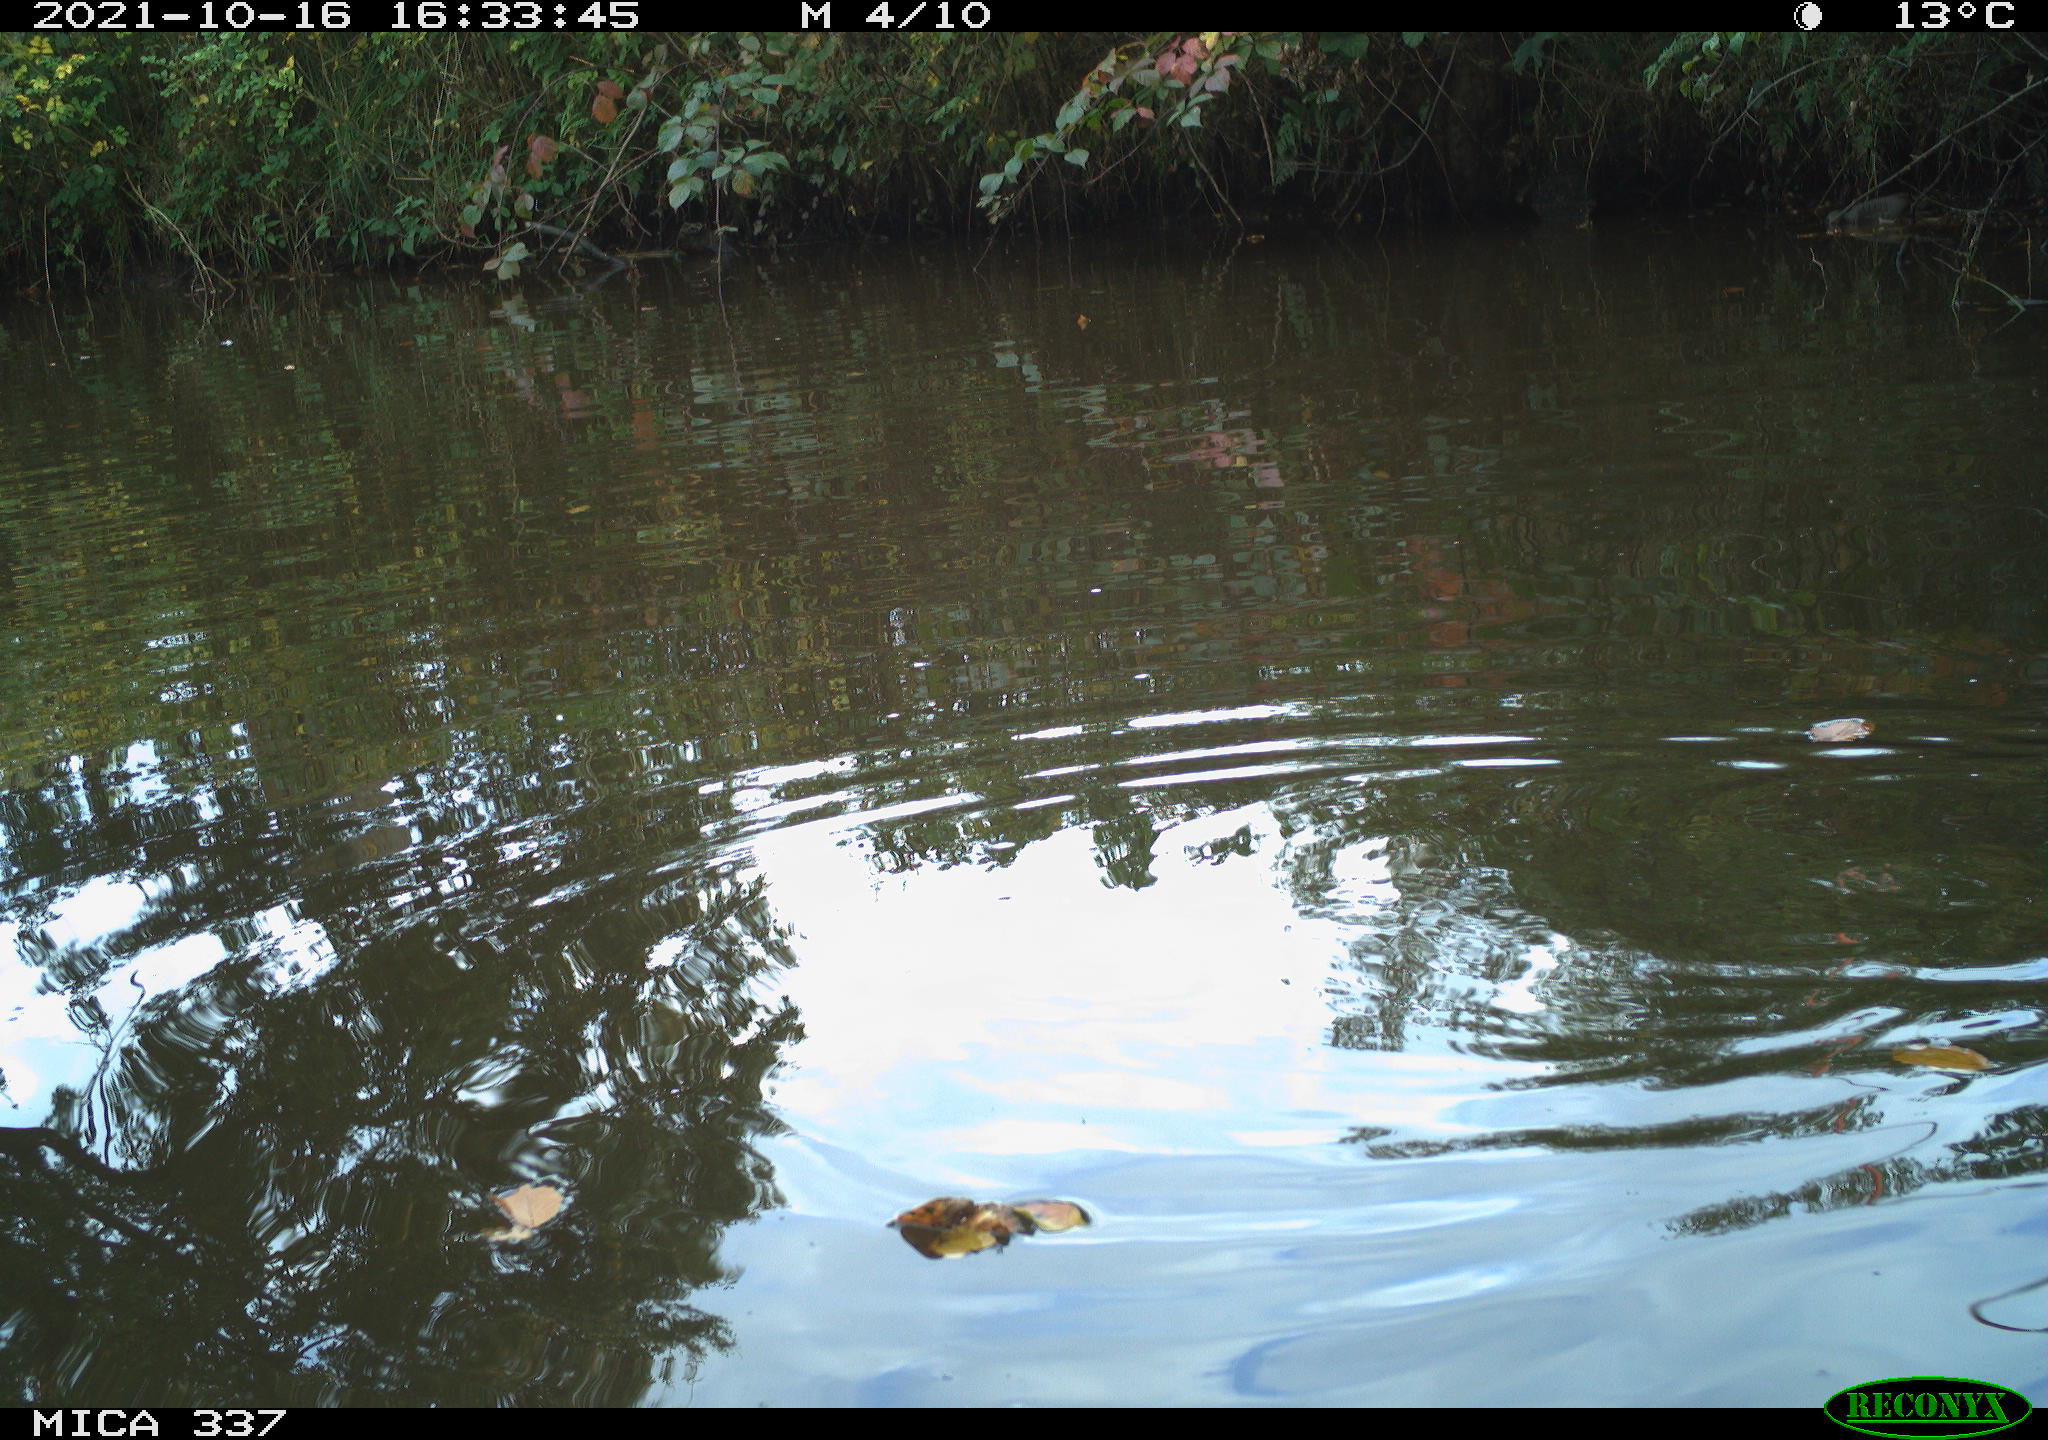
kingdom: Animalia
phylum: Chordata
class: Aves
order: Anseriformes
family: Anatidae
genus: Anas
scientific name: Anas platyrhynchos
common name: Mallard
